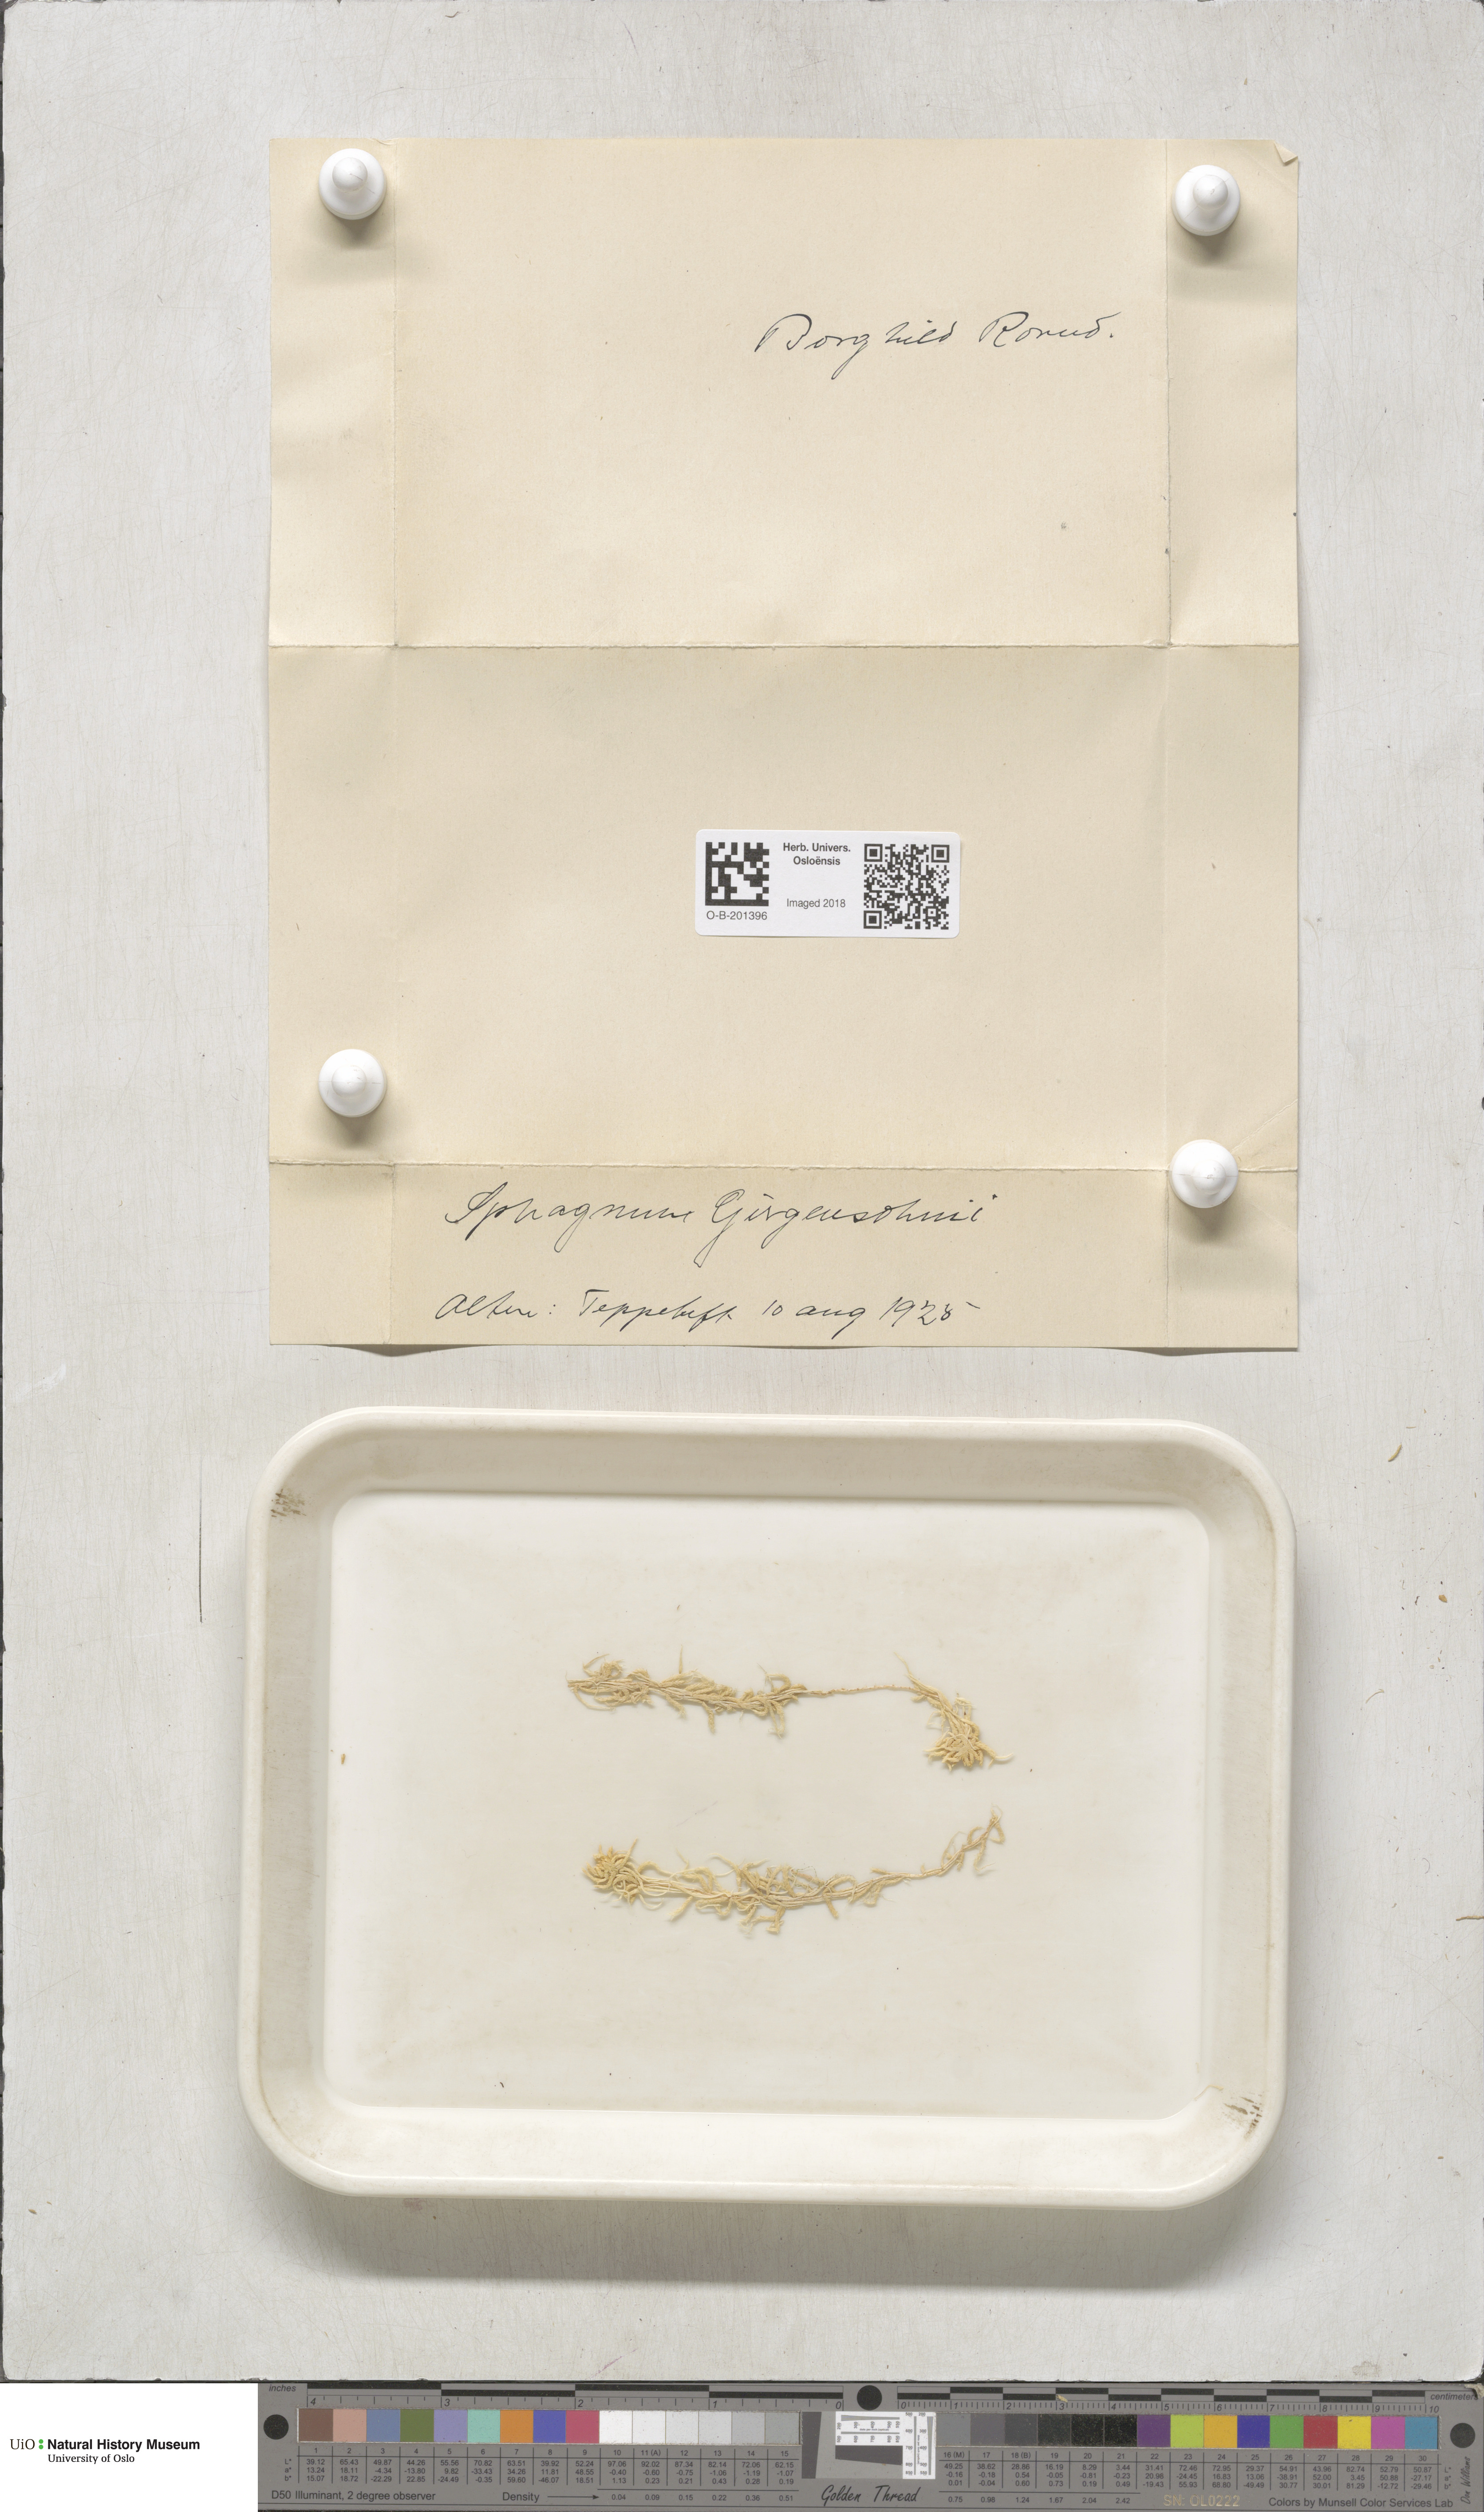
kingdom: Plantae
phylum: Bryophyta
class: Sphagnopsida
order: Sphagnales
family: Sphagnaceae
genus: Sphagnum
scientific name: Sphagnum girgensohnii
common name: Girgensohn's peat moss
